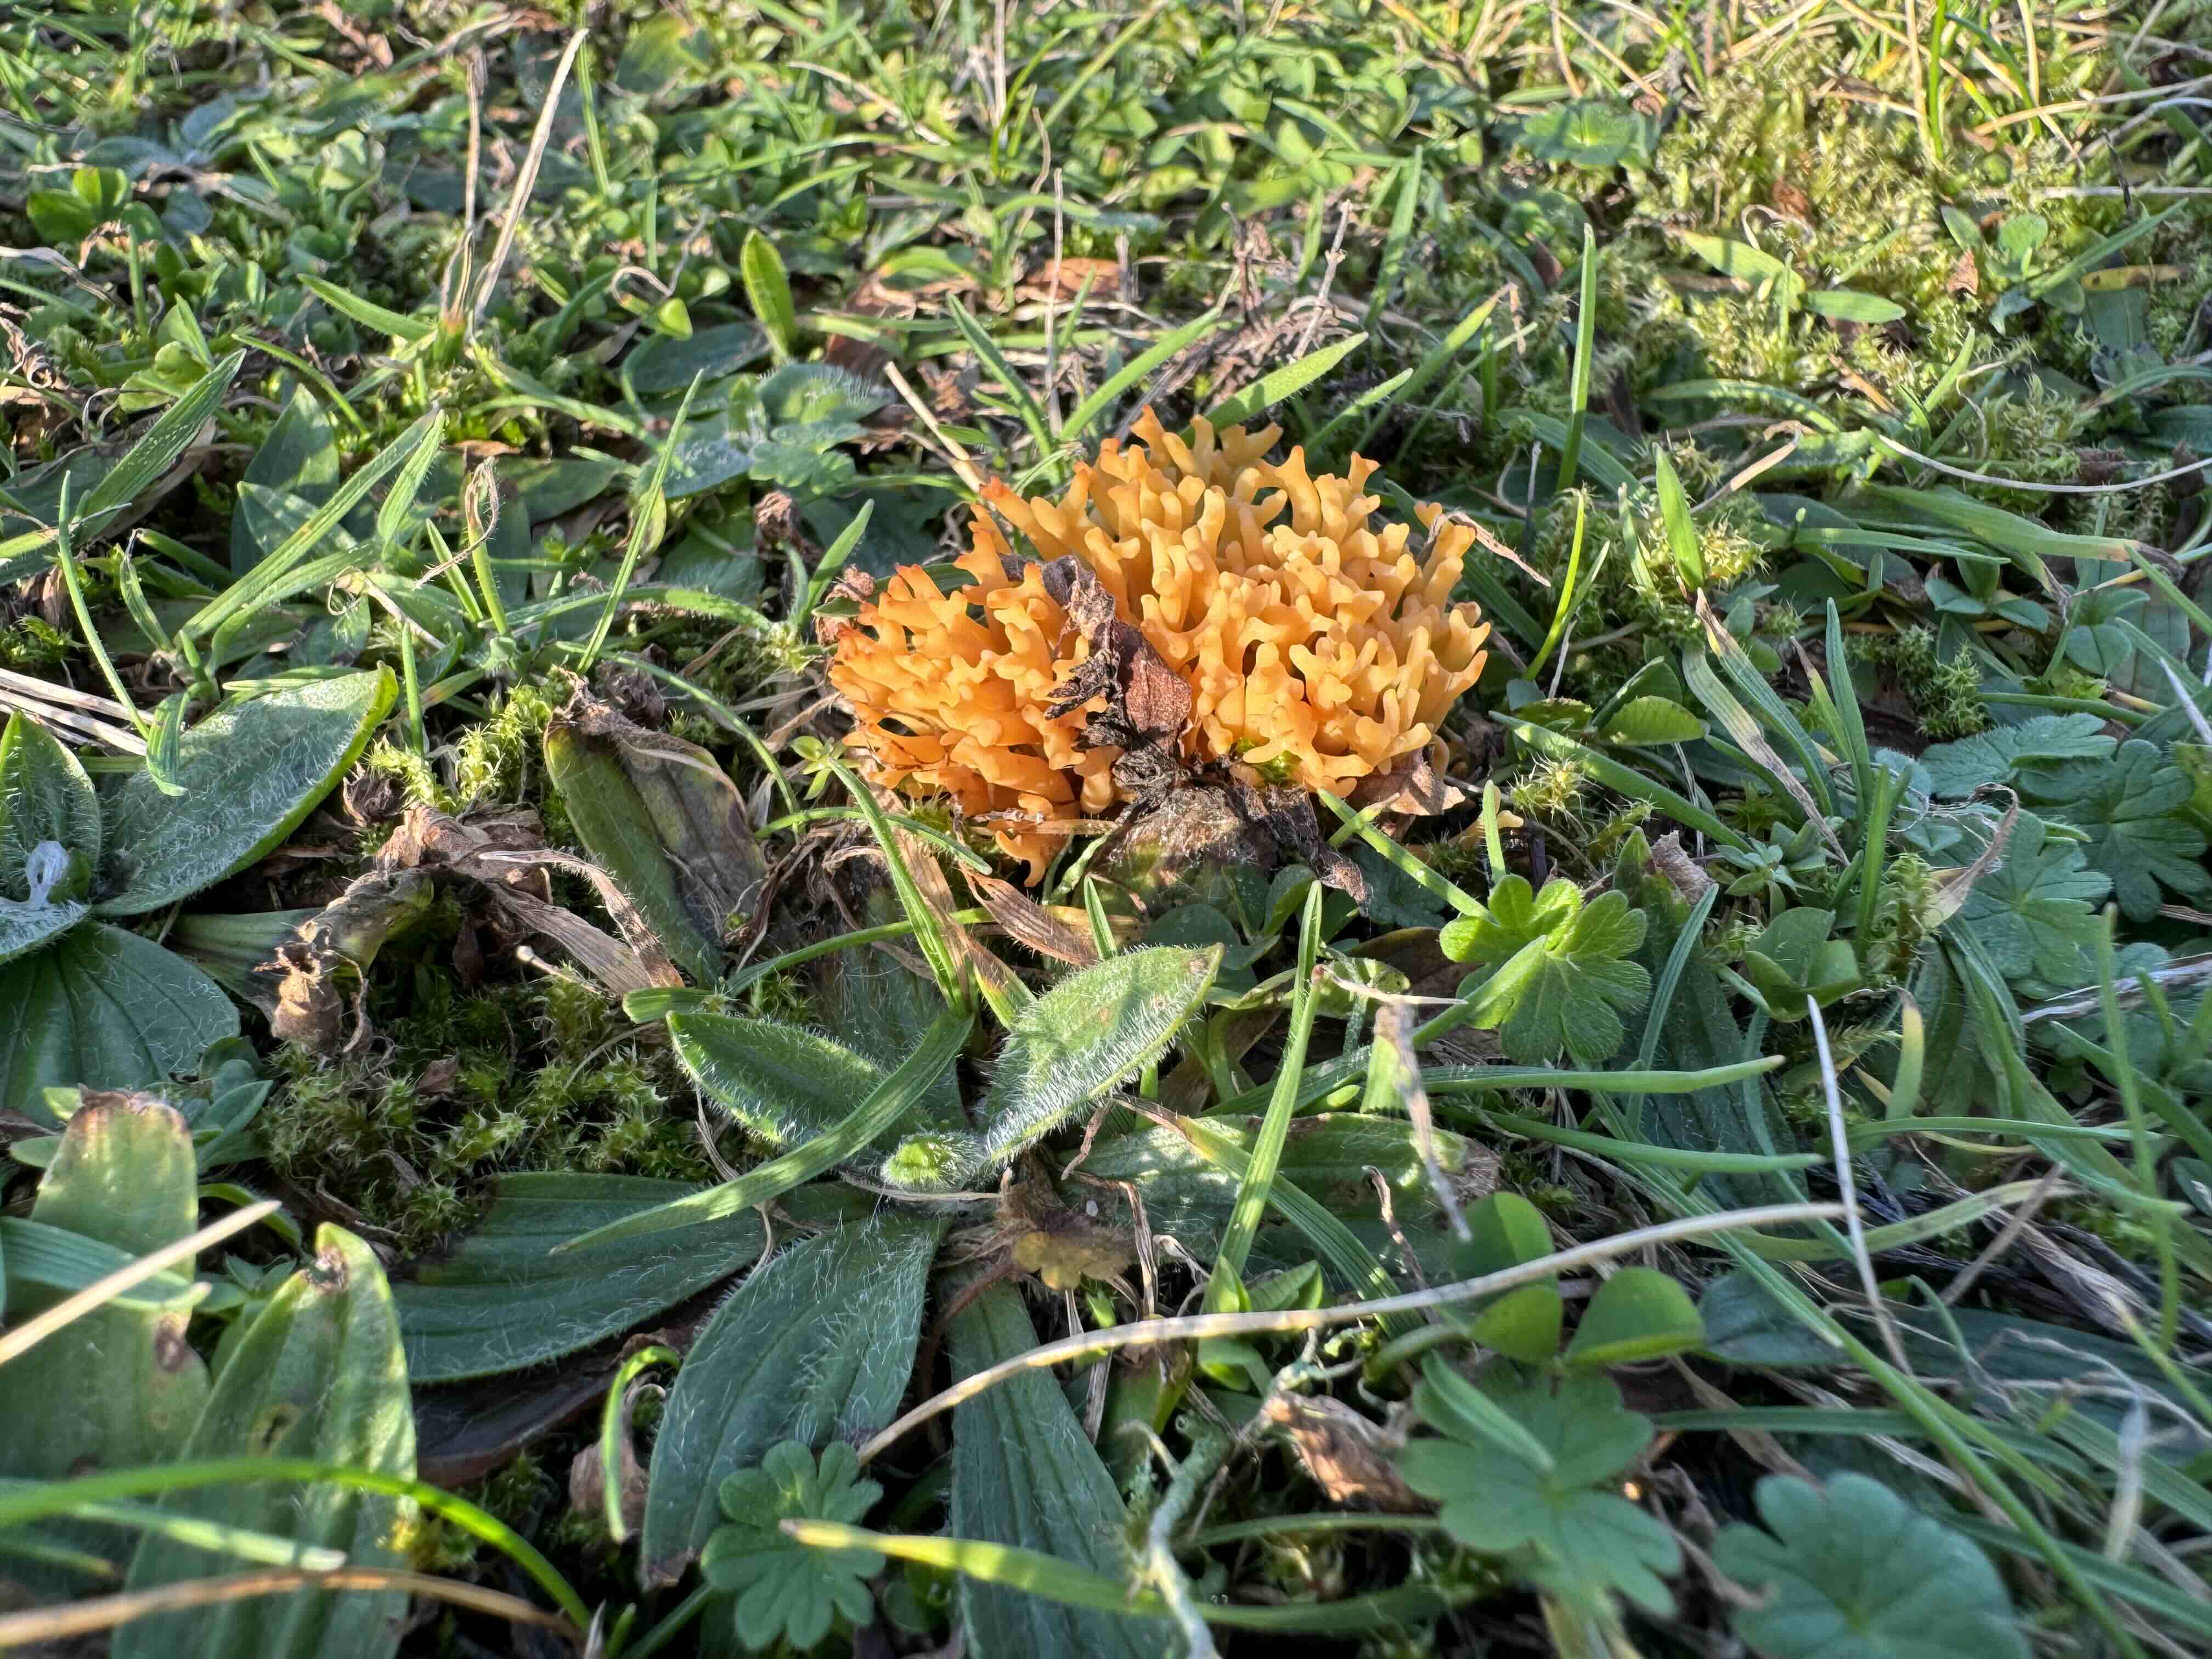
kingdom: Fungi
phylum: Basidiomycota
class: Agaricomycetes
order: Agaricales
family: Clavariaceae
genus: Clavulinopsis
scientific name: Clavulinopsis corniculata
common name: eng-køllesvamp
